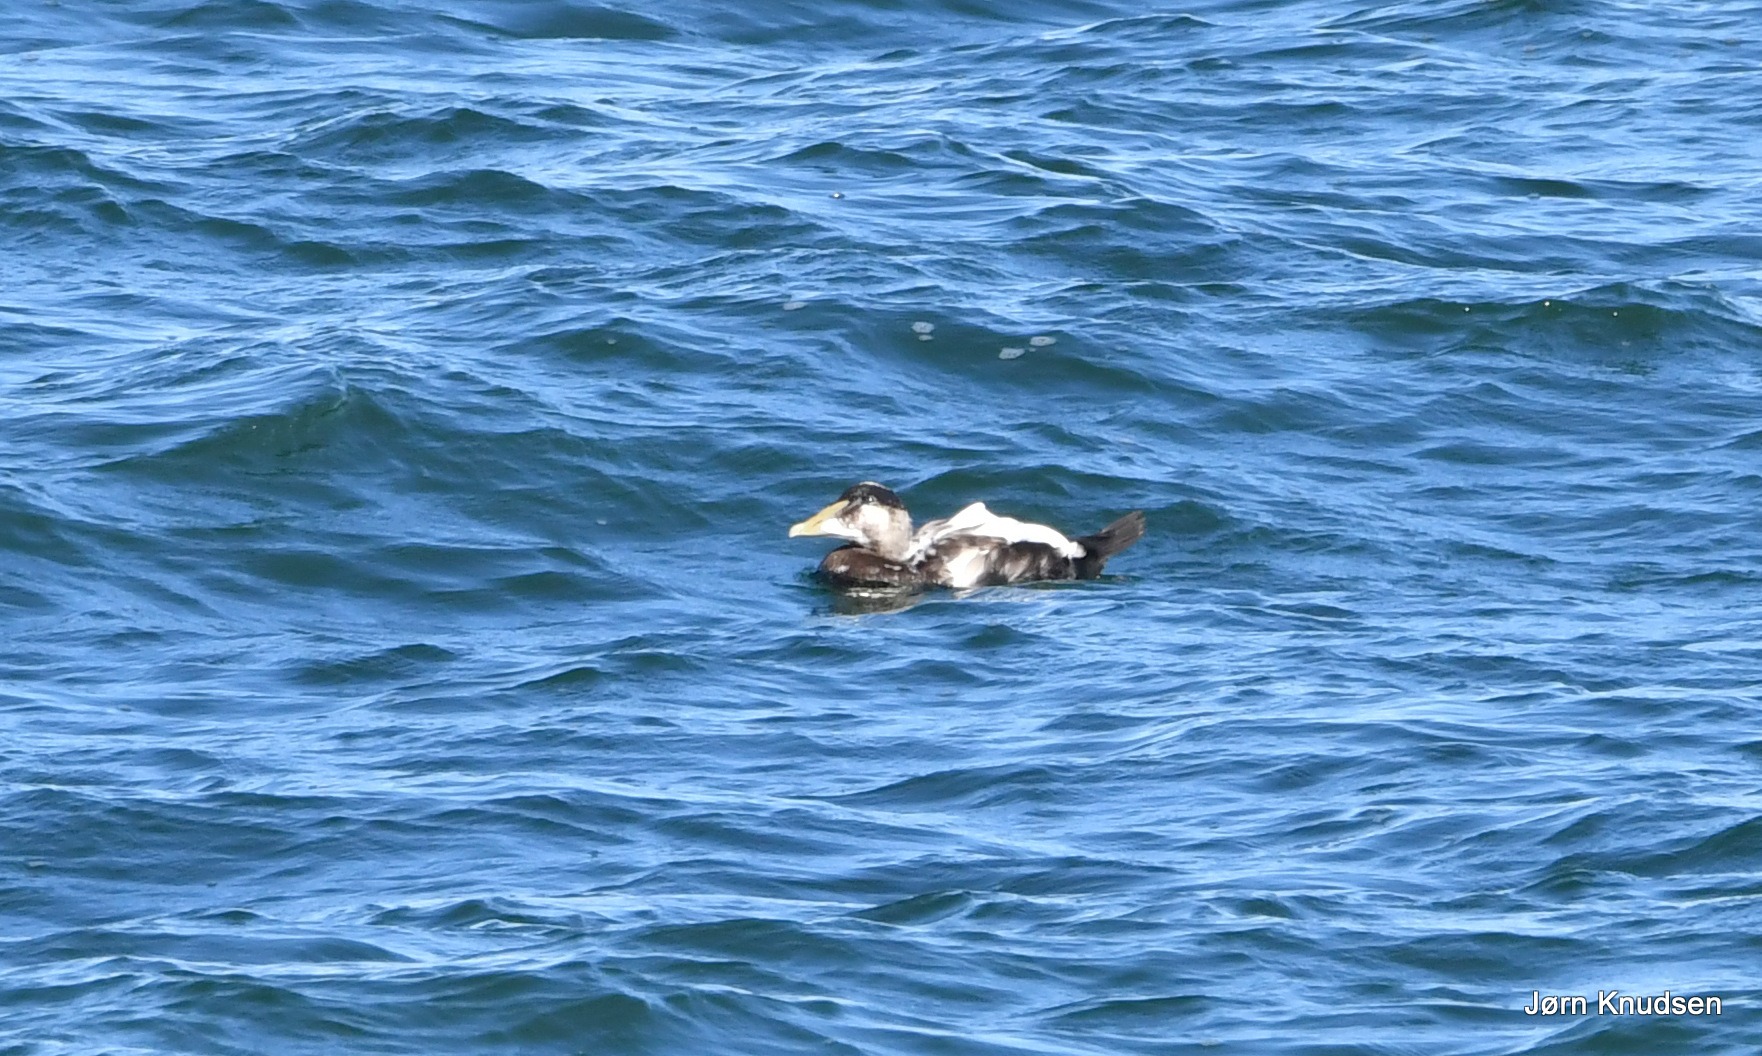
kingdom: Animalia
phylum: Chordata
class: Aves
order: Anseriformes
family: Anatidae
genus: Somateria
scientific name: Somateria mollissima
